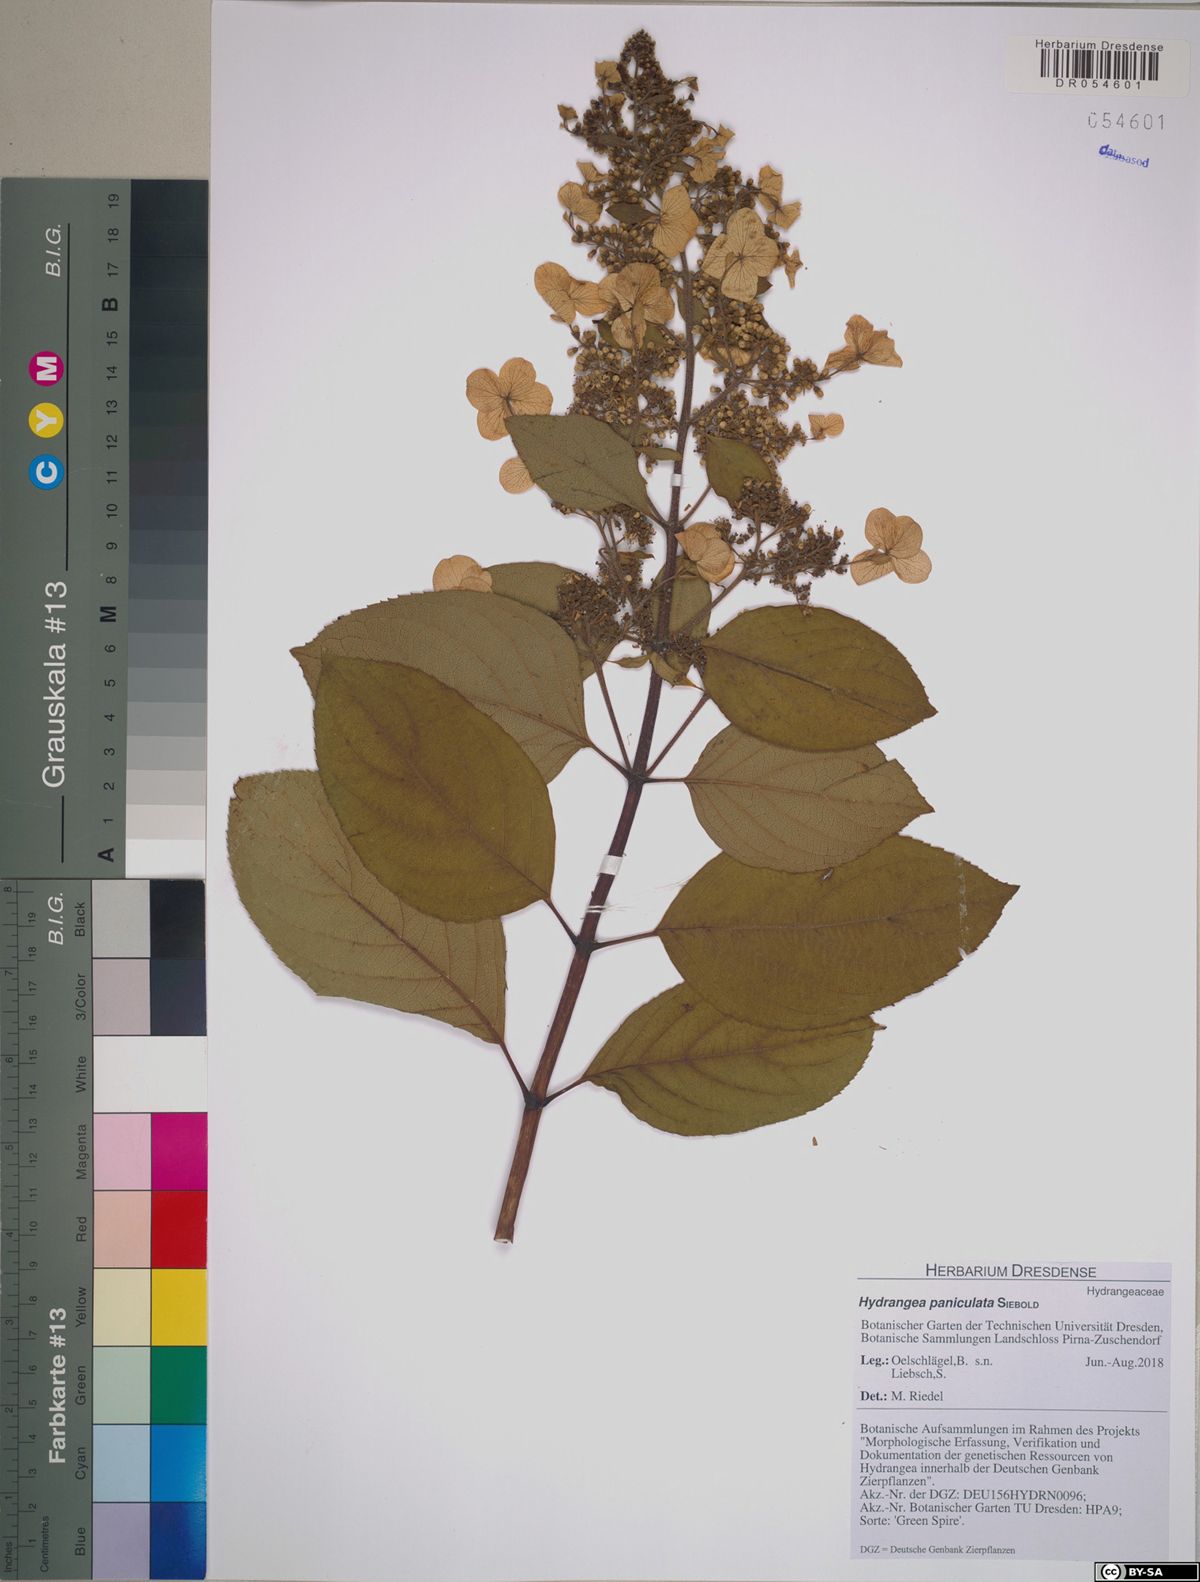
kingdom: Plantae
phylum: Tracheophyta
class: Magnoliopsida
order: Cornales
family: Hydrangeaceae
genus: Hydrangea
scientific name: Hydrangea paniculata
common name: Panicled hydrangea
